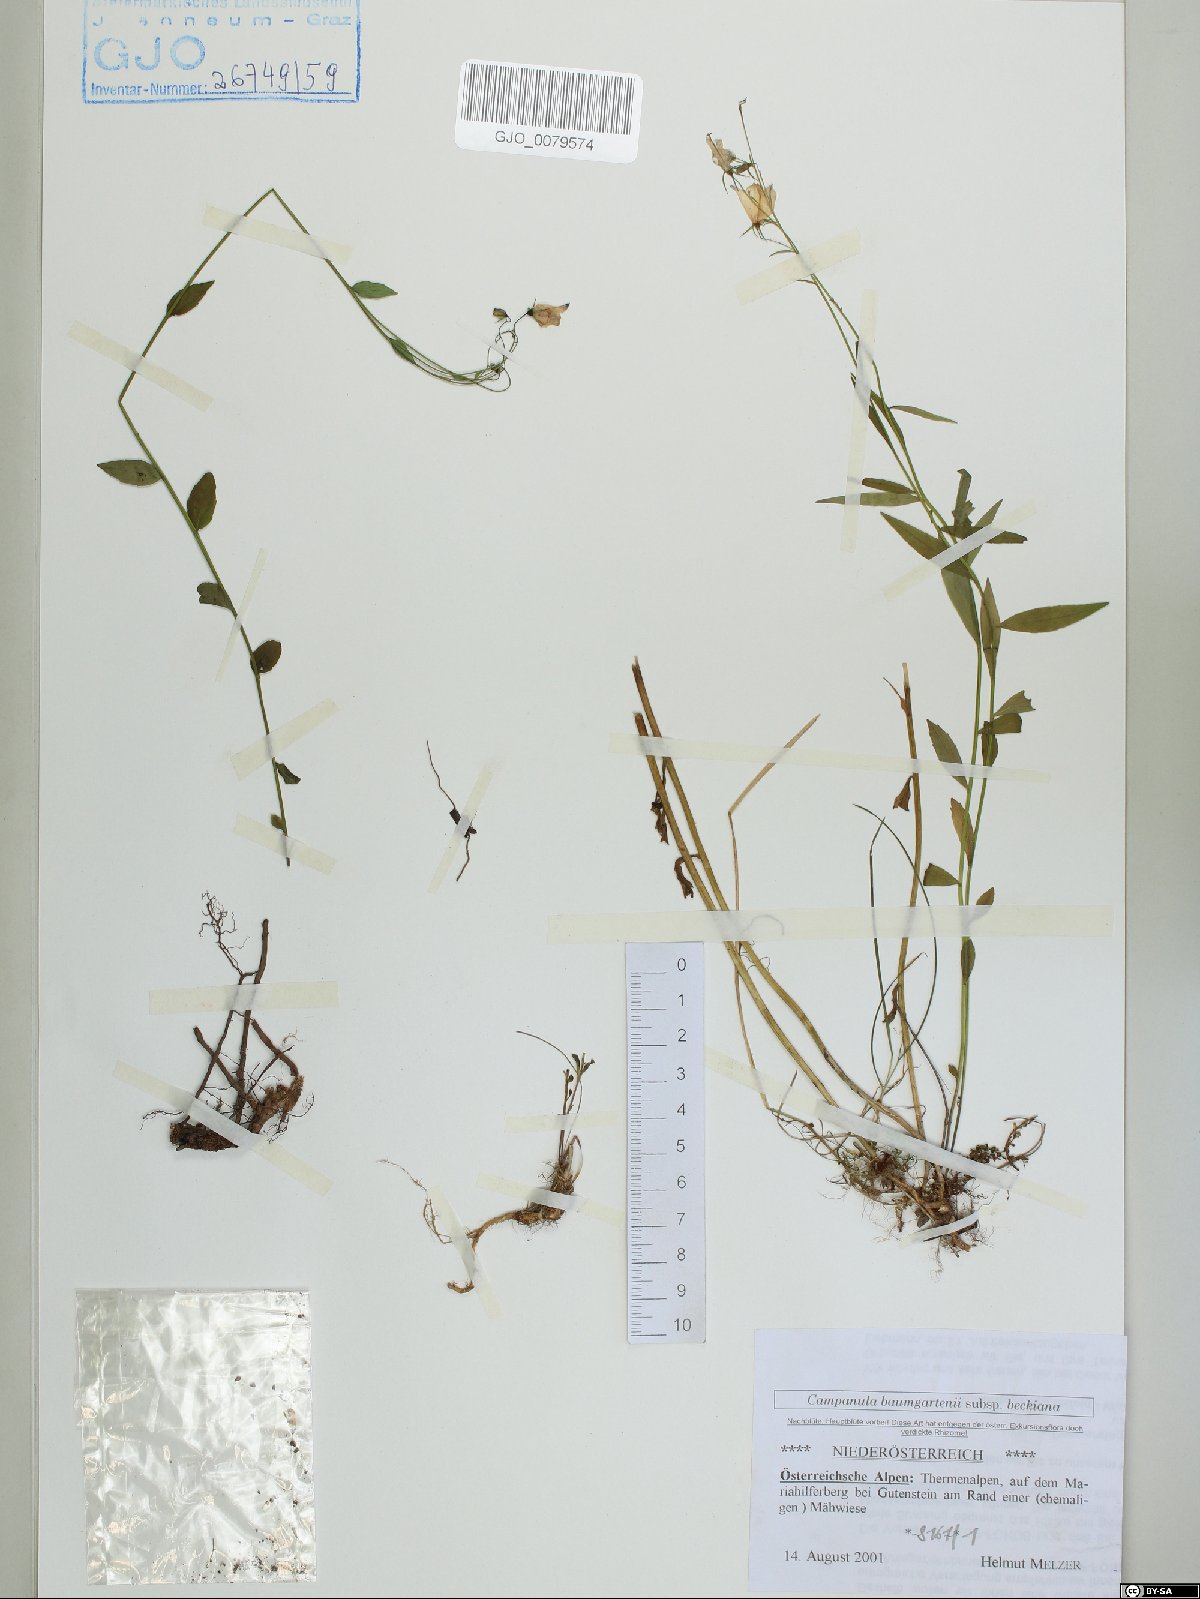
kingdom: Plantae
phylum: Tracheophyta
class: Magnoliopsida
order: Asterales
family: Campanulaceae
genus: Campanula
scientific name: Campanula baumgartenii
